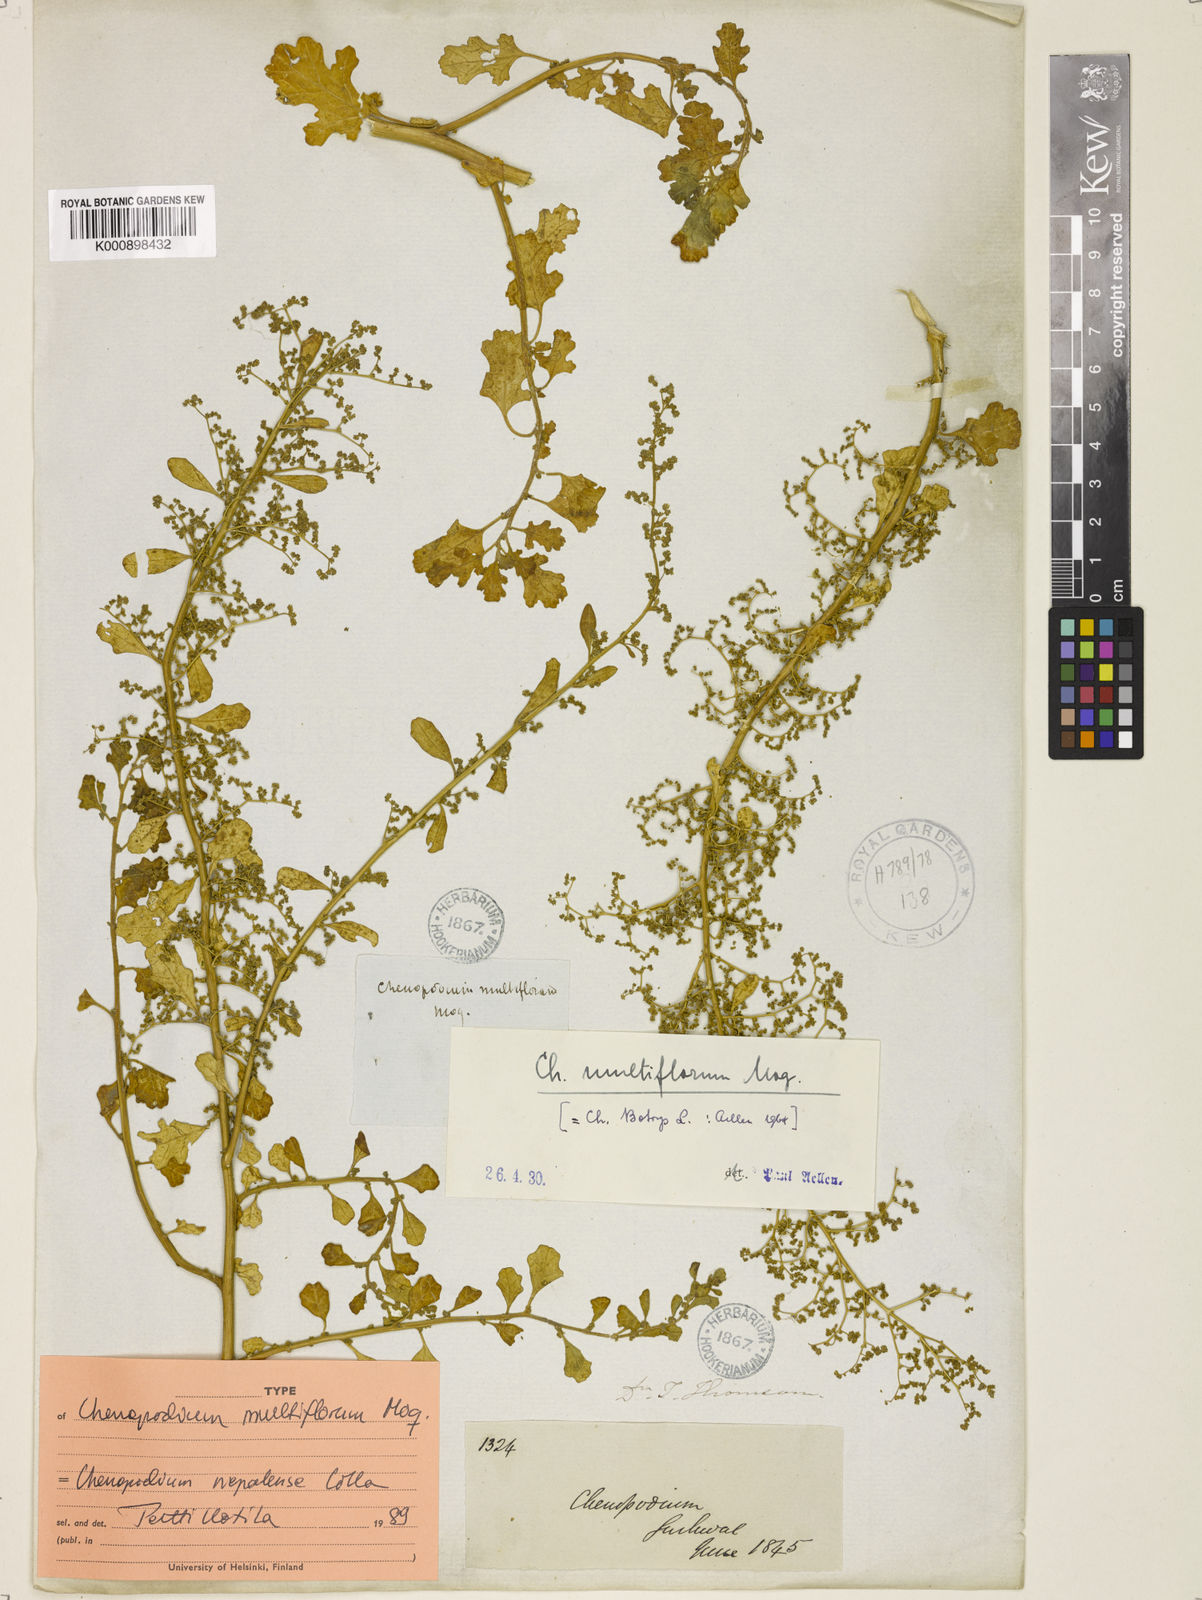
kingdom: Plantae
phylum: Tracheophyta
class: Magnoliopsida
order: Caryophyllales
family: Amaranthaceae
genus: Dysphania
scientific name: Dysphania multiflora
